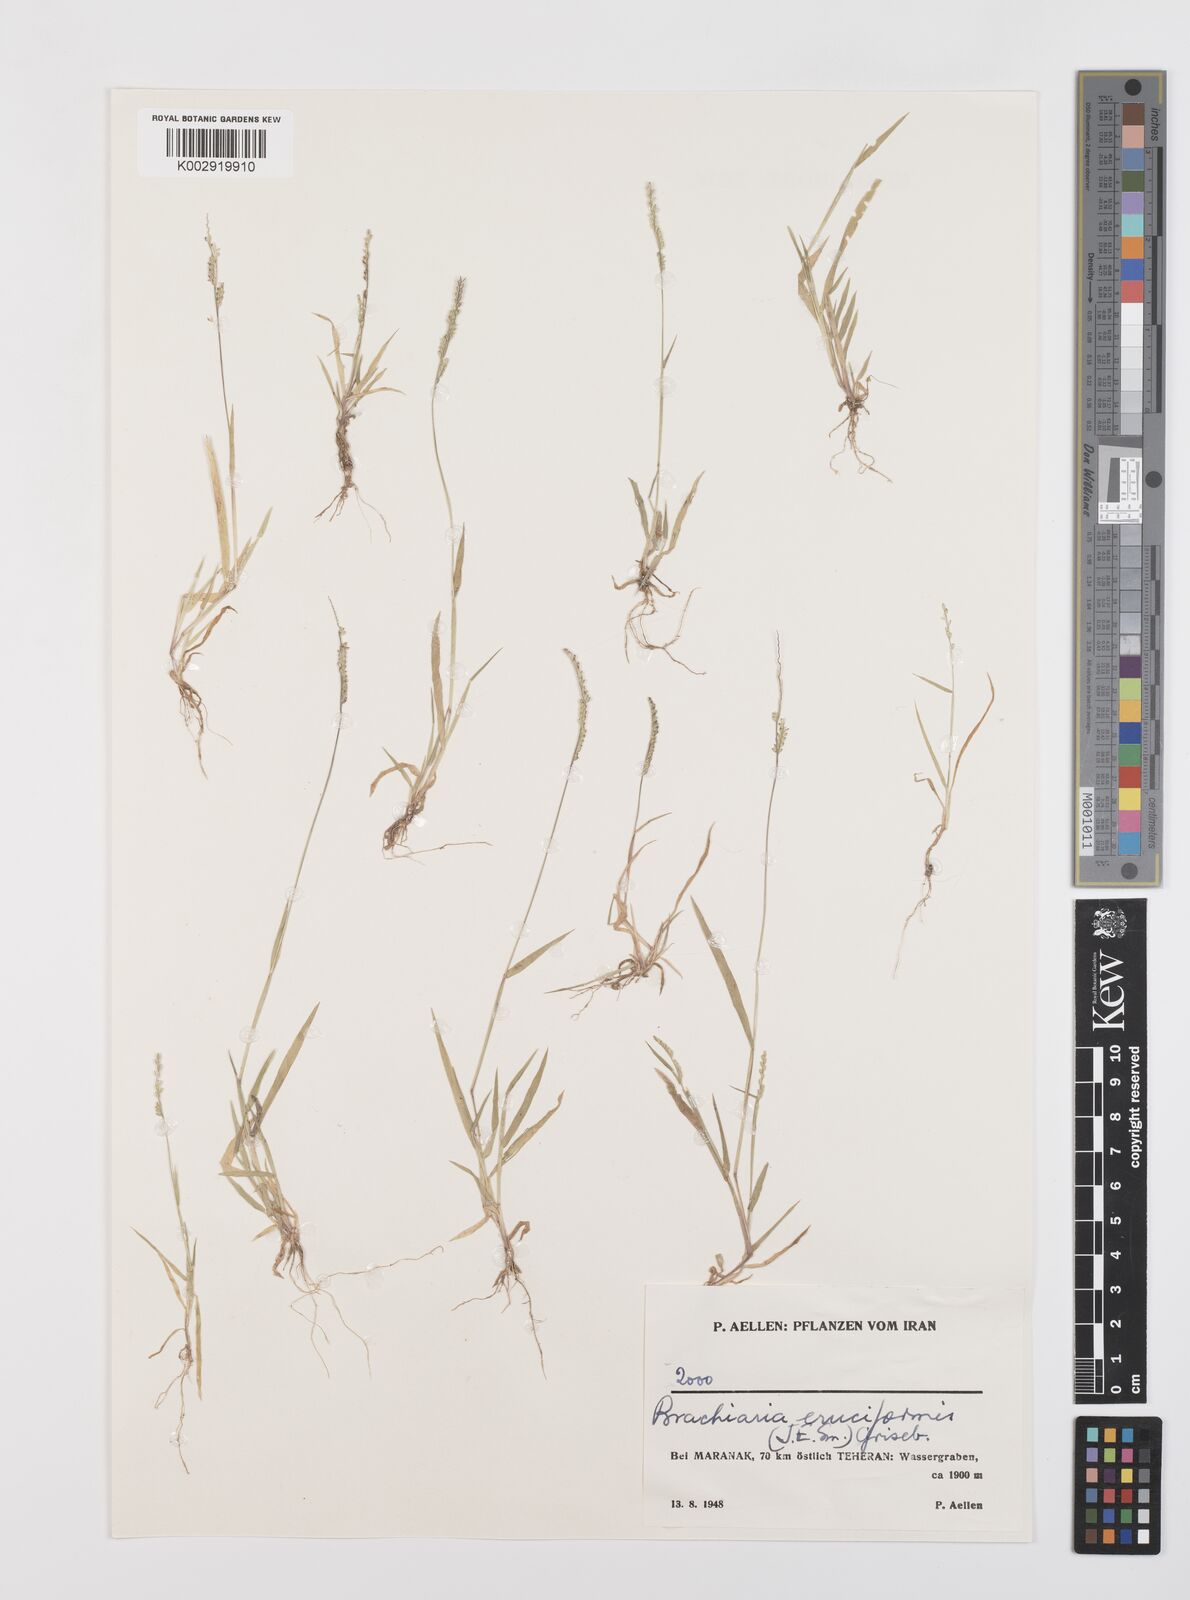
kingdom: Plantae
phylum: Tracheophyta
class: Liliopsida
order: Poales
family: Poaceae
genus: Moorochloa
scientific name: Moorochloa eruciformis
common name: Sweet signalgrass
